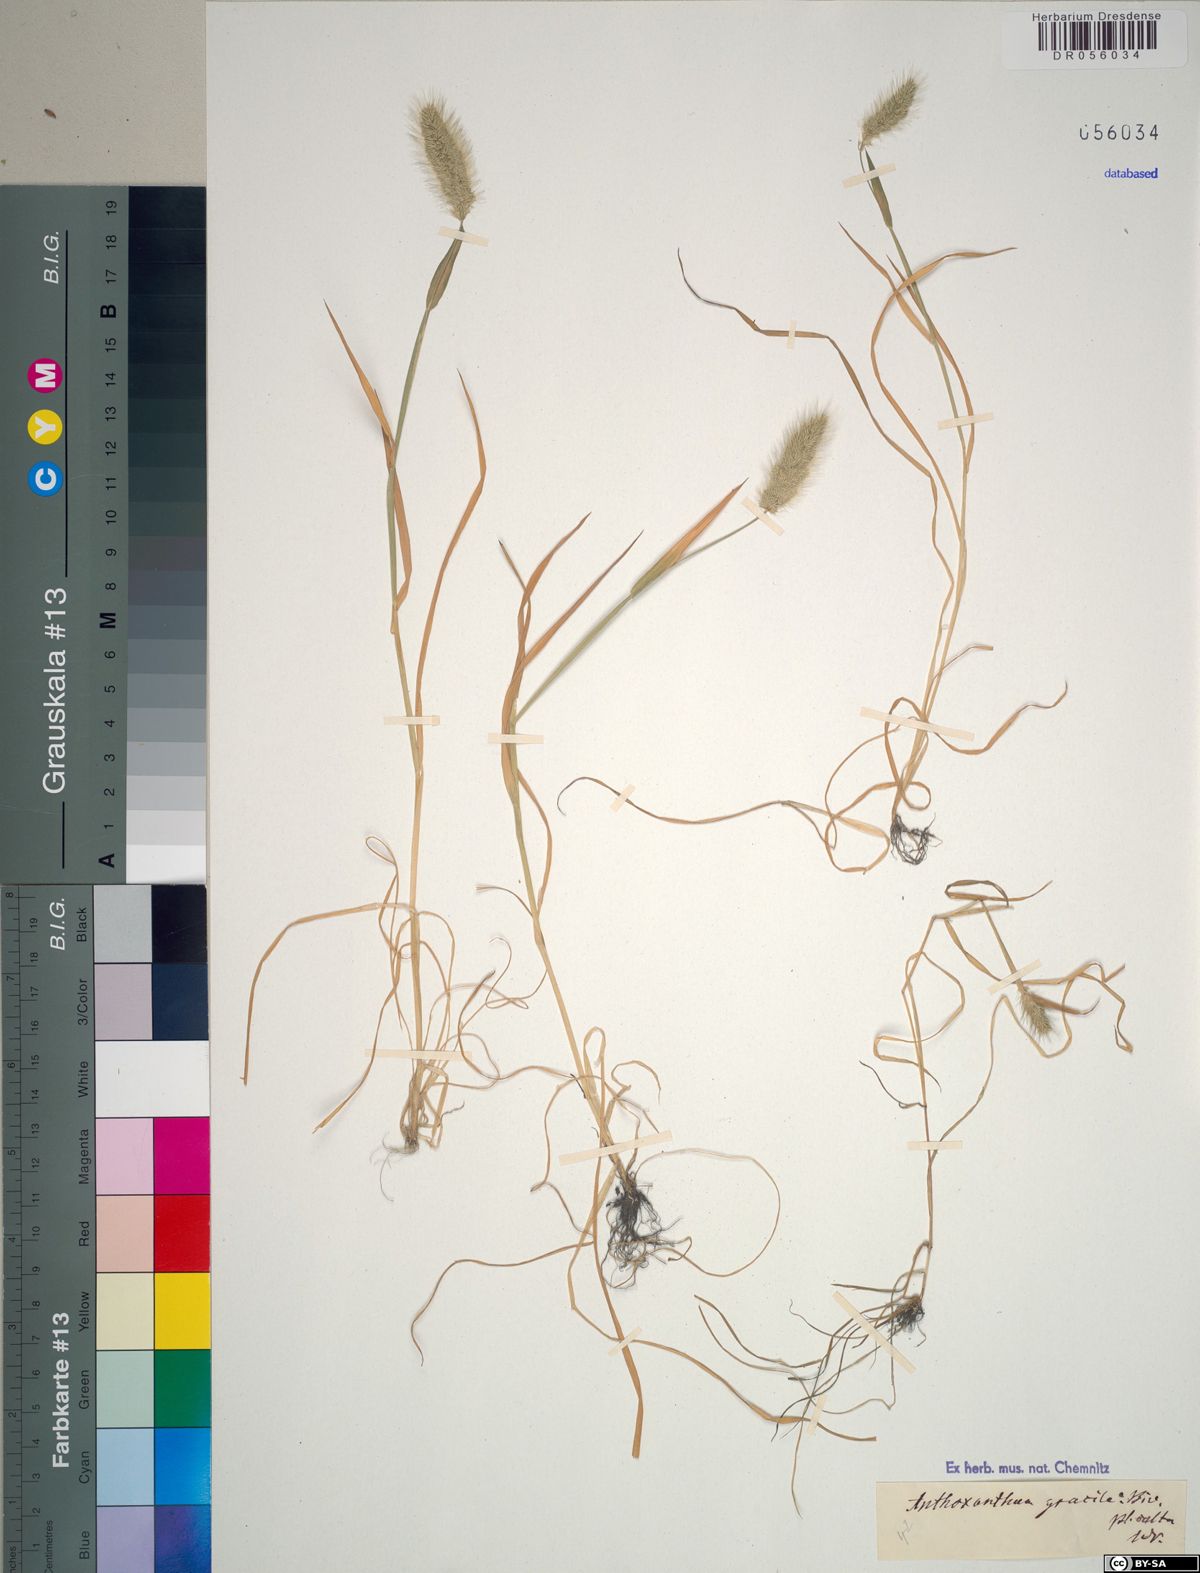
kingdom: Plantae
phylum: Tracheophyta
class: Liliopsida
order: Poales
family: Poaceae
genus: Anthoxanthum
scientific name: Anthoxanthum gracile
